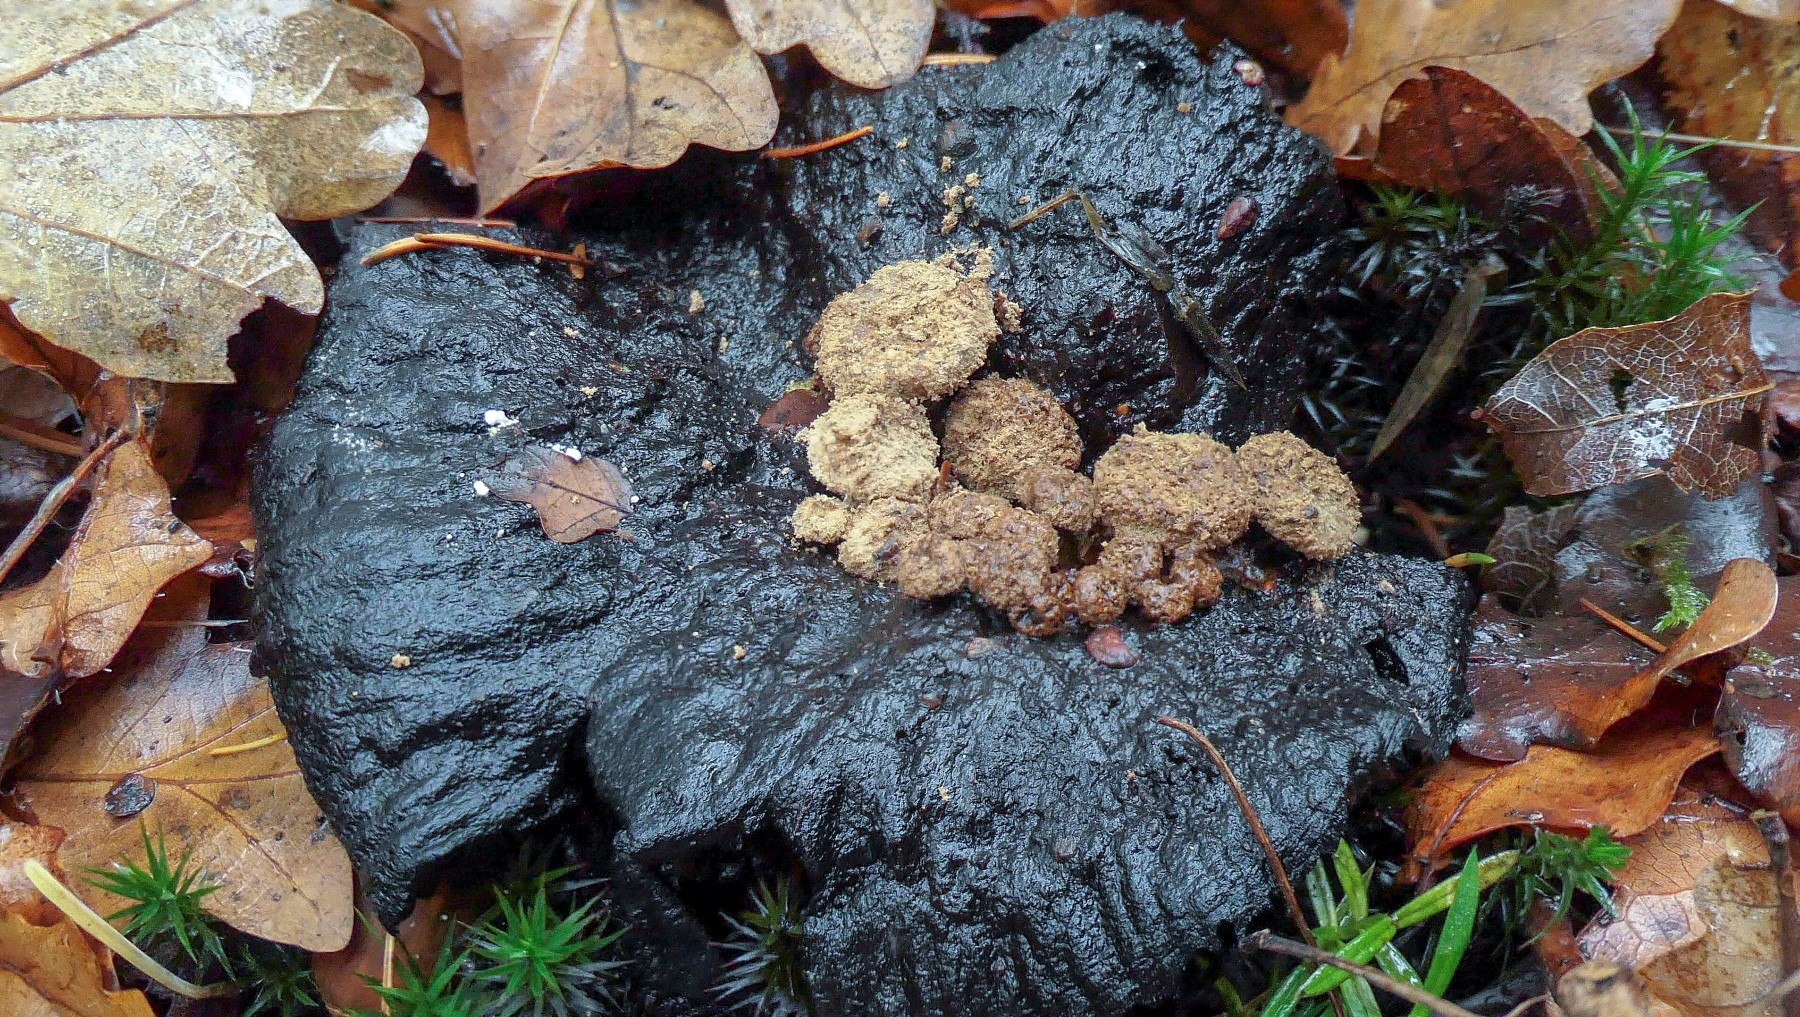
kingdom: Fungi
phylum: Basidiomycota
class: Agaricomycetes
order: Agaricales
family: Lyophyllaceae
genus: Asterophora
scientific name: Asterophora lycoperdoides
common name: brunpudret snyltehat
